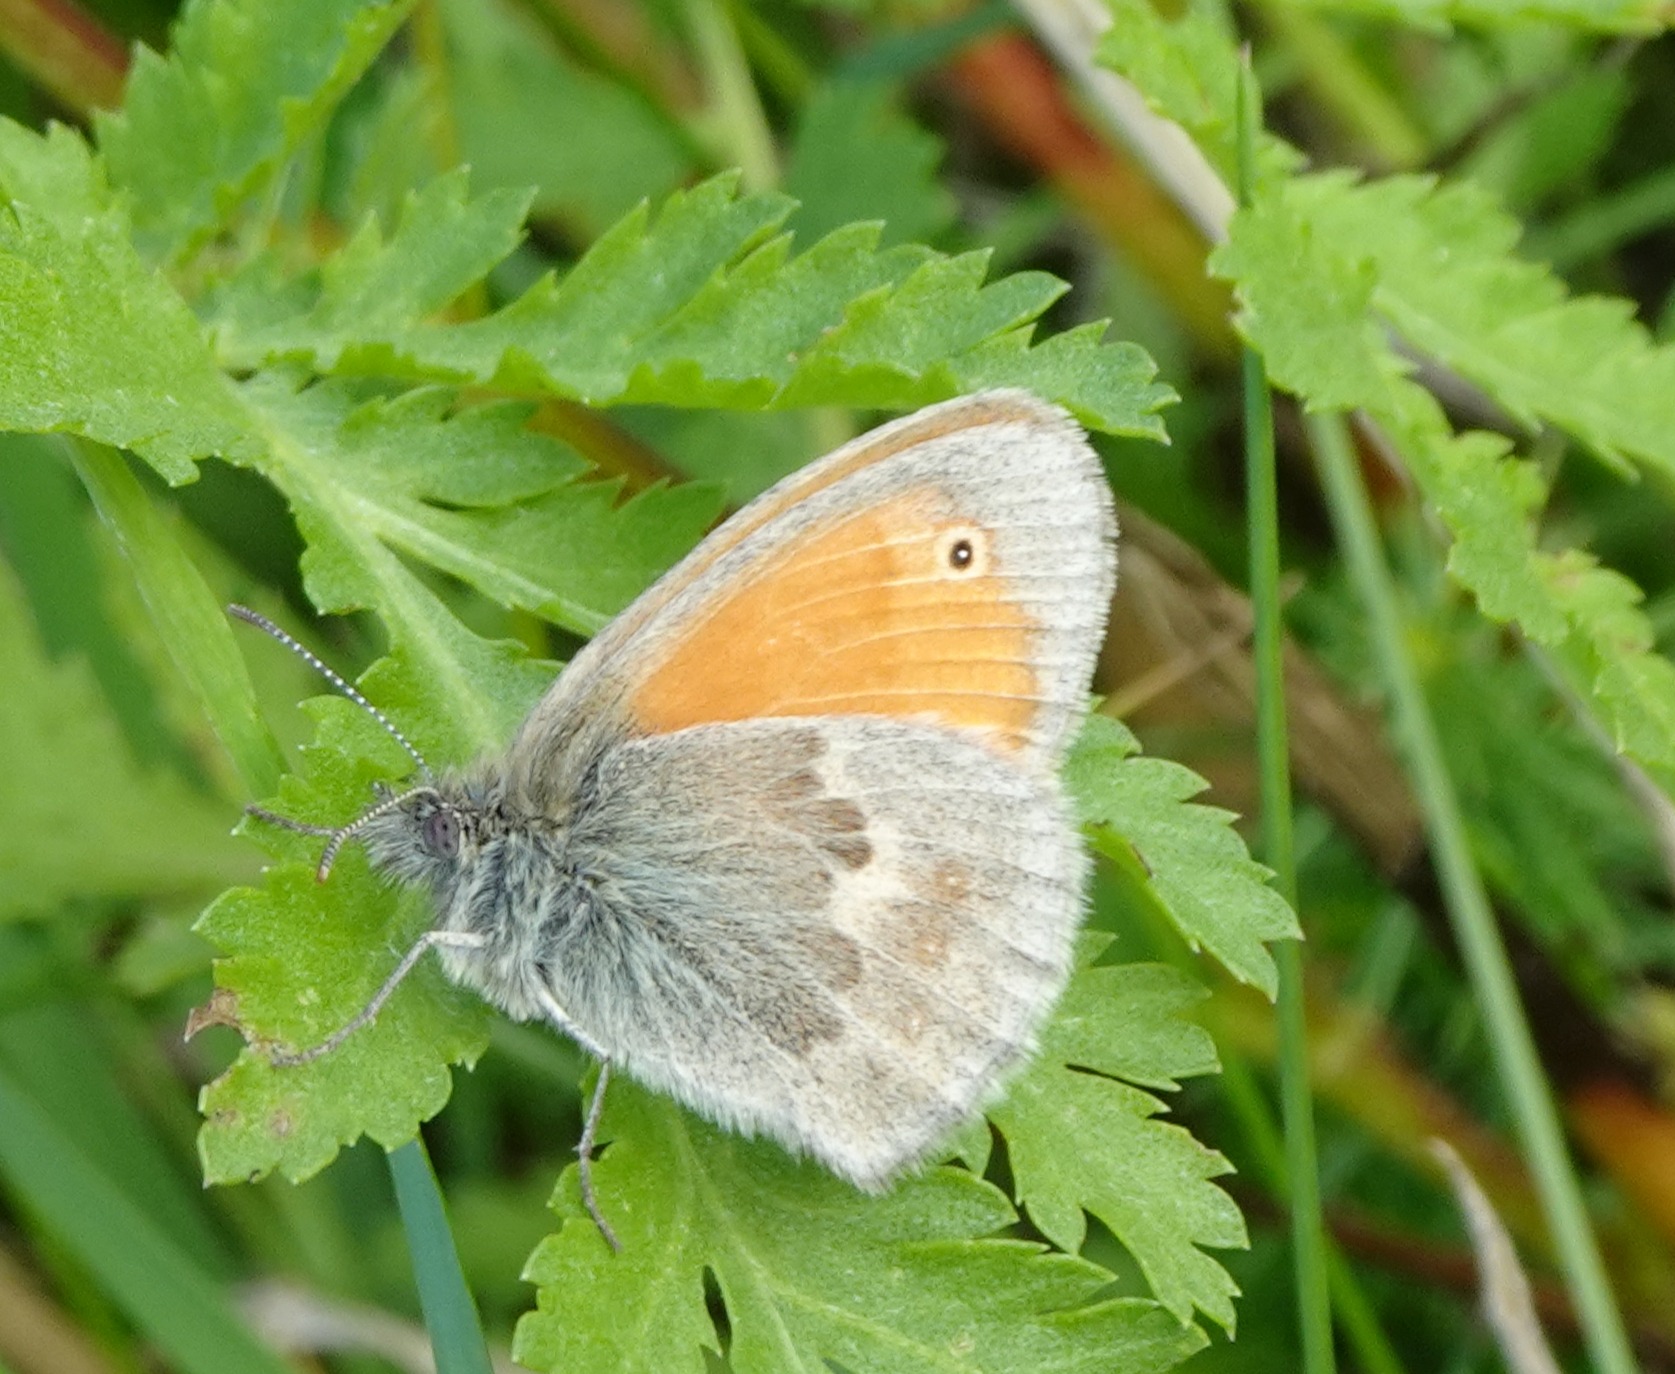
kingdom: Animalia
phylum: Arthropoda
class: Insecta
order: Lepidoptera
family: Nymphalidae
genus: Coenonympha
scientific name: Coenonympha pamphilus
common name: Okkergul randøje
